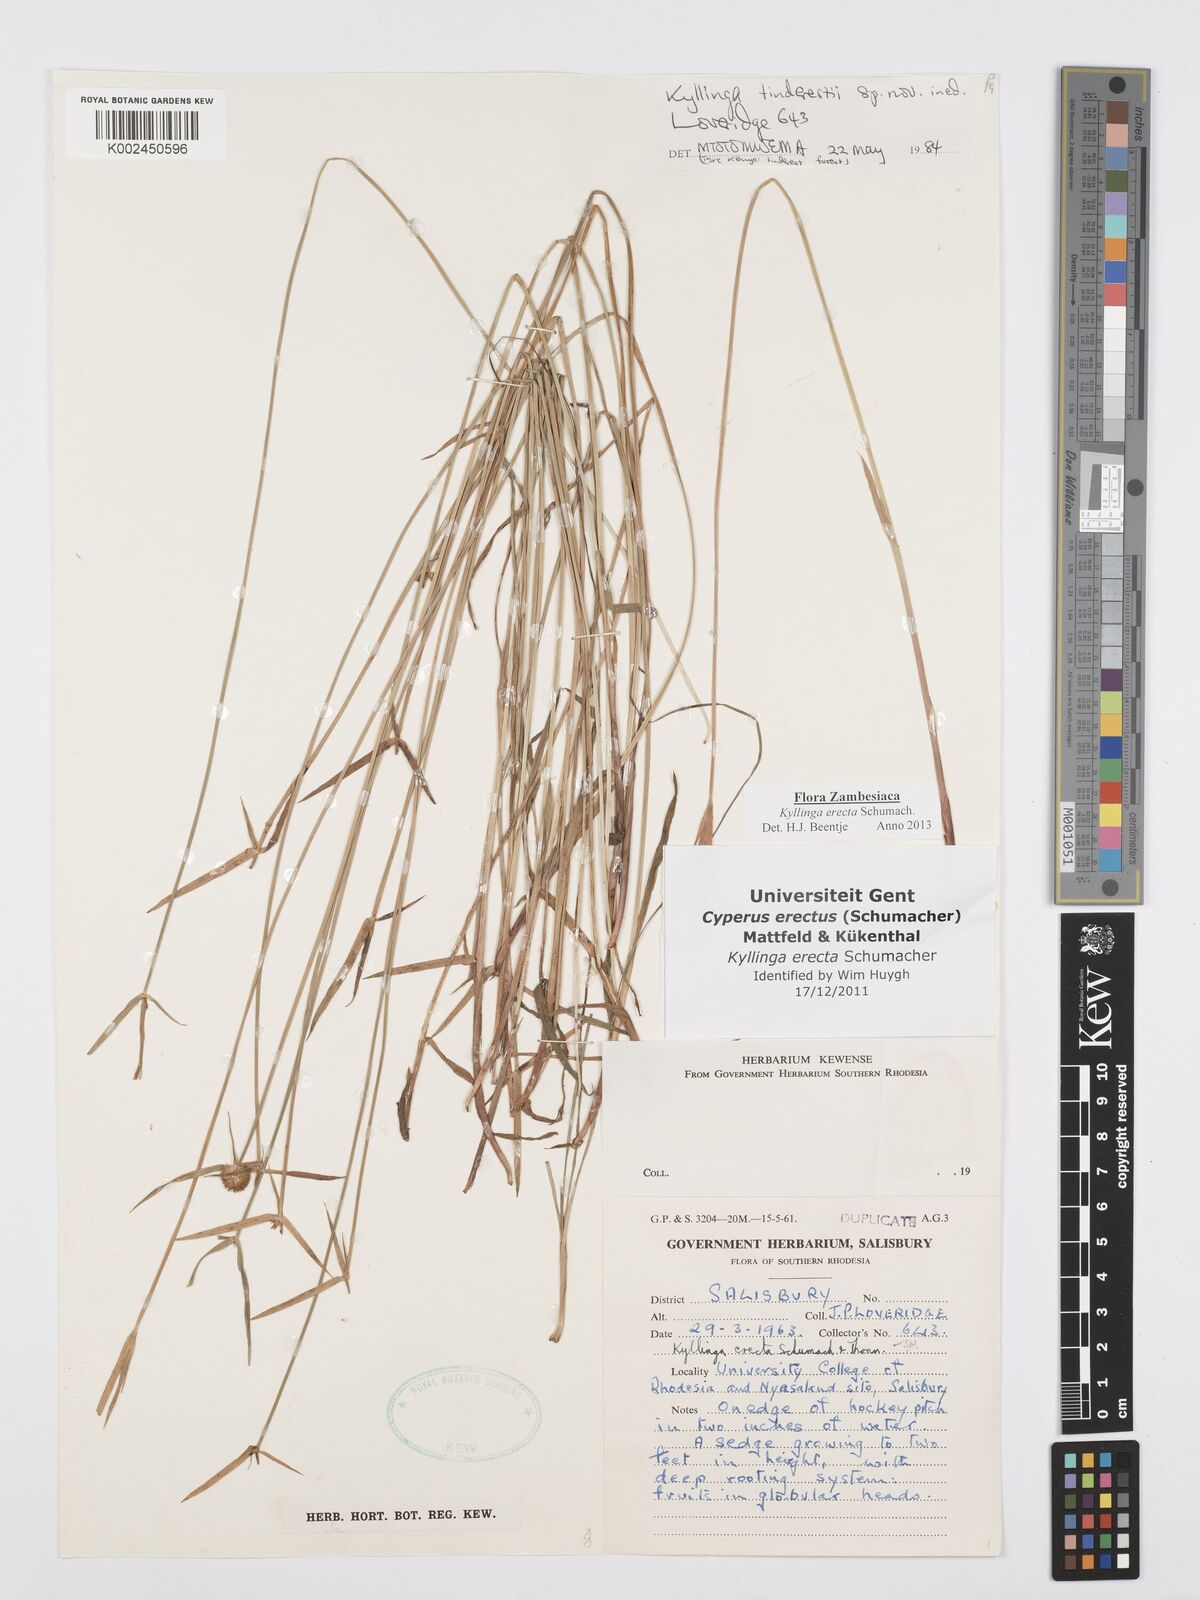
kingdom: Plantae
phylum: Tracheophyta
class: Liliopsida
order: Poales
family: Cyperaceae
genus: Cyperus
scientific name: Cyperus erectus
